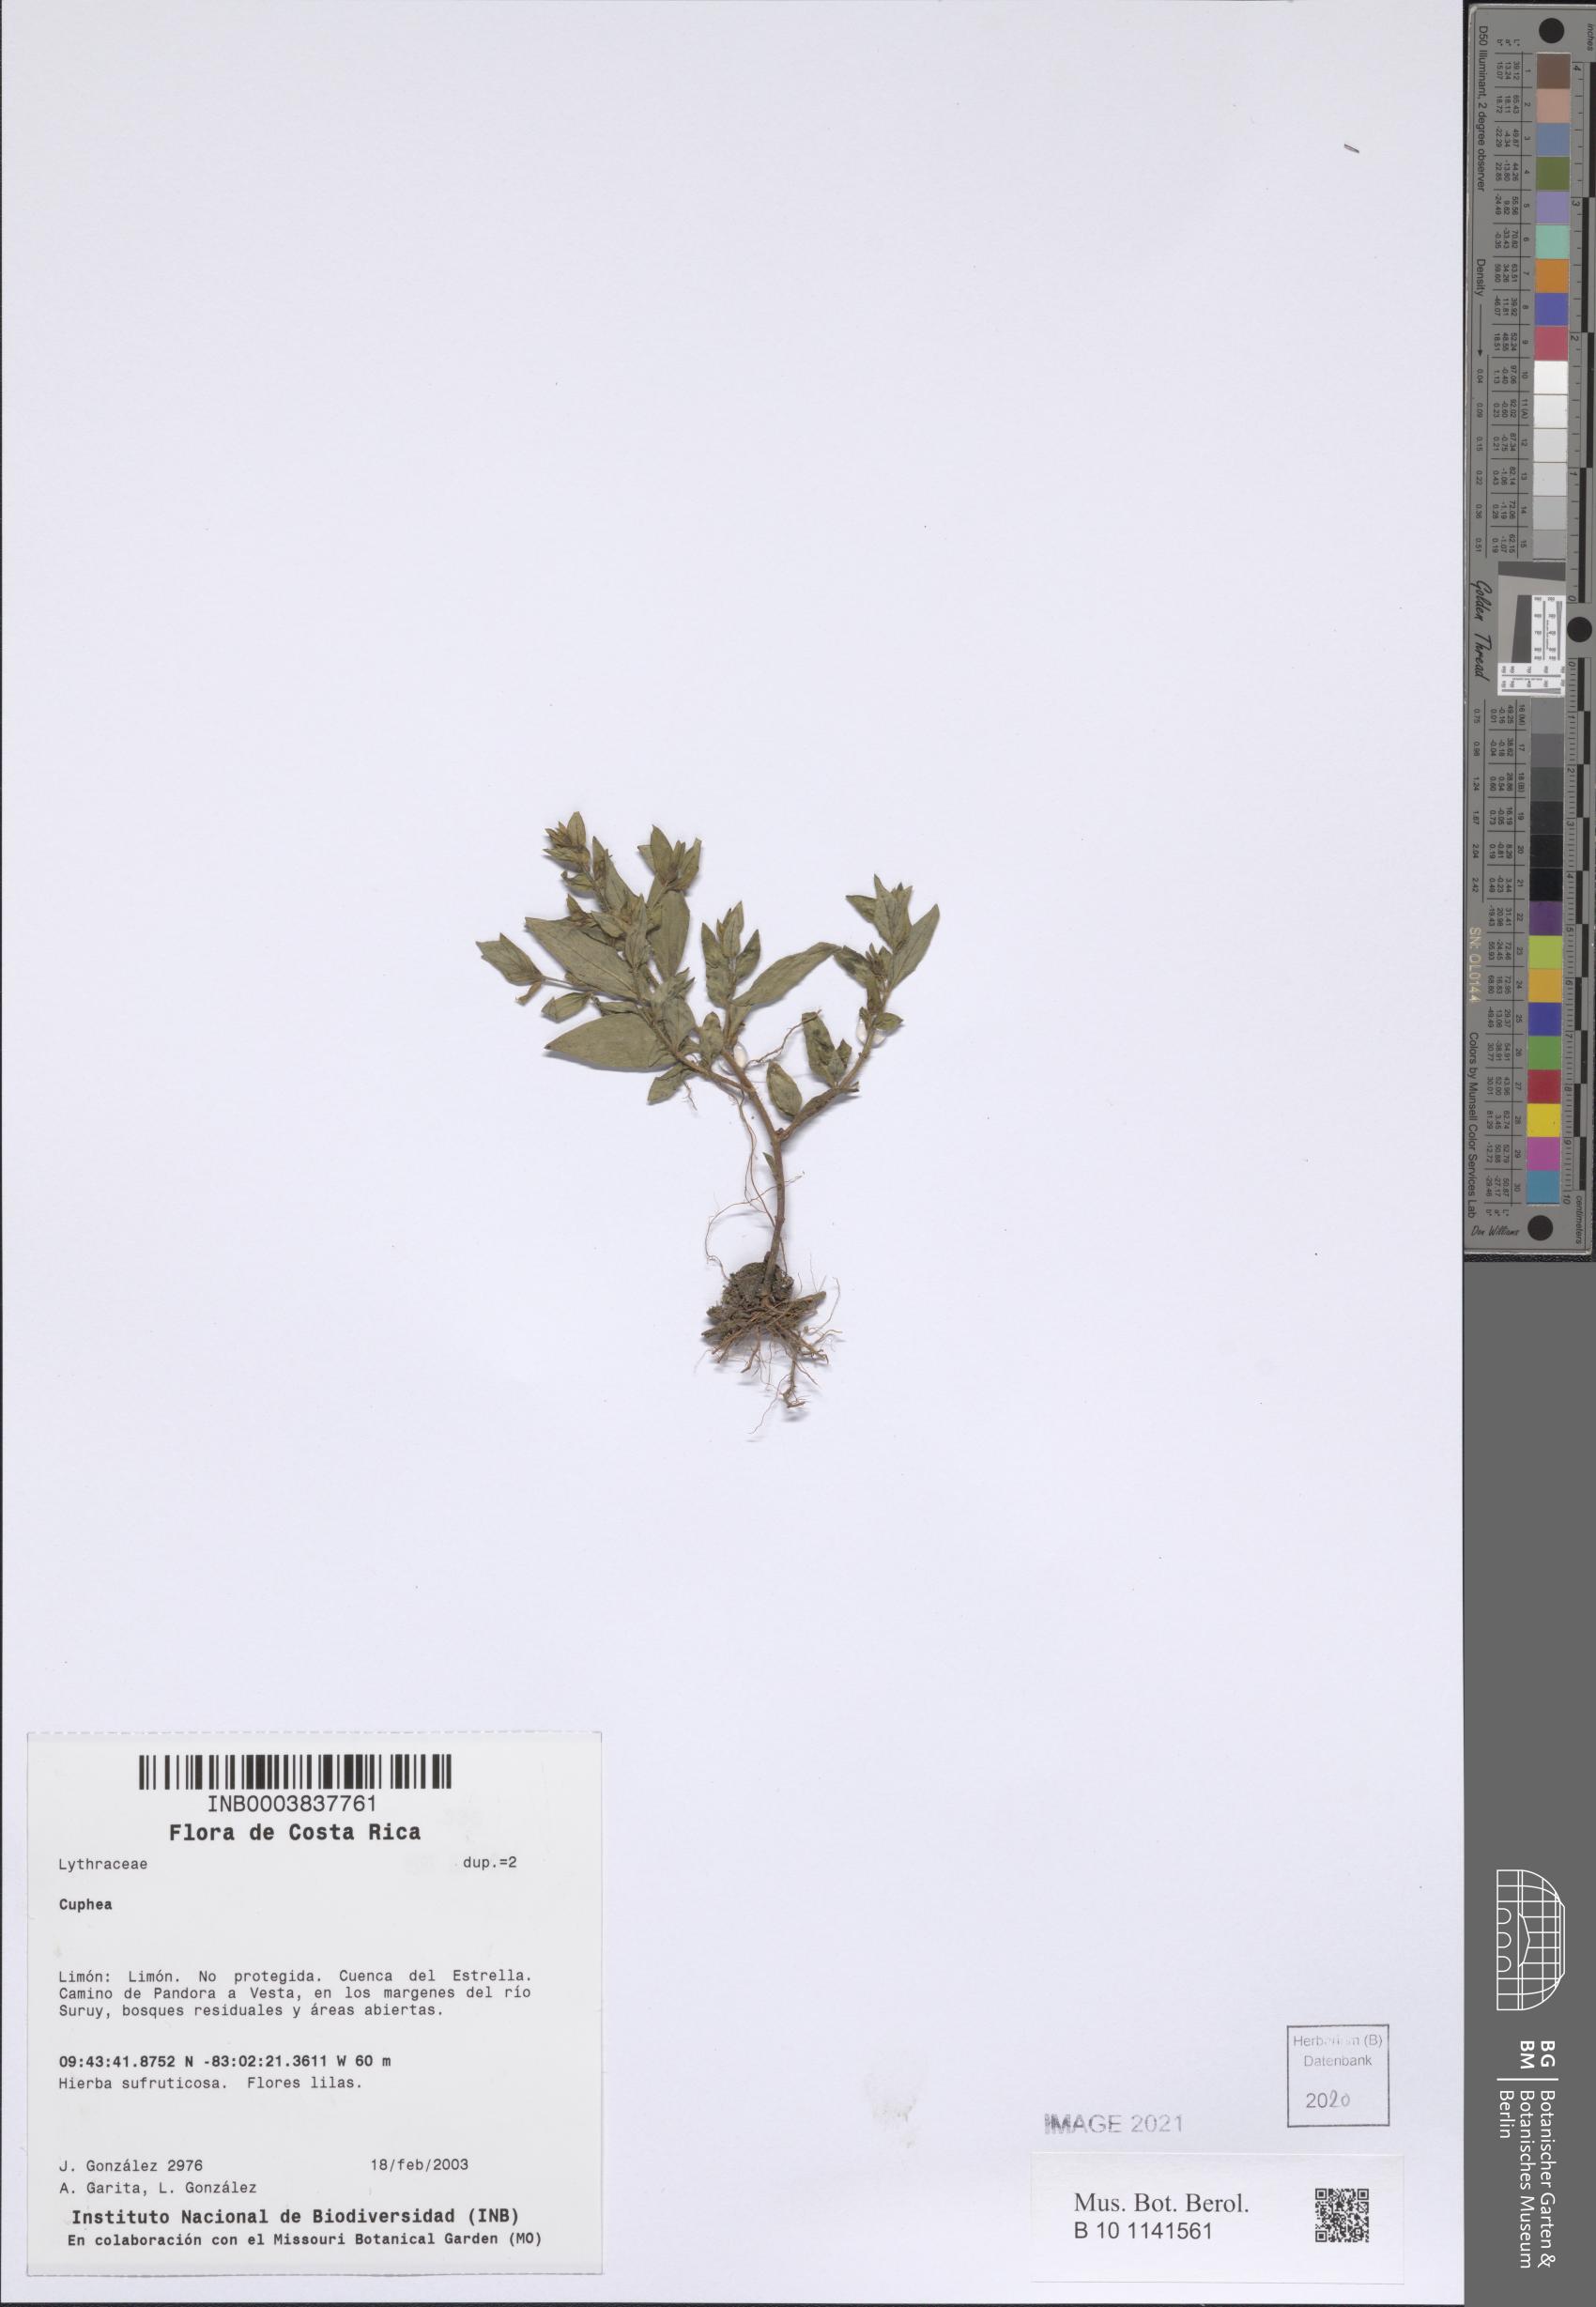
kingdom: Plantae
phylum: Tracheophyta
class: Magnoliopsida
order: Myrtales
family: Lythraceae
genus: Cuphea
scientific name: Cuphea
